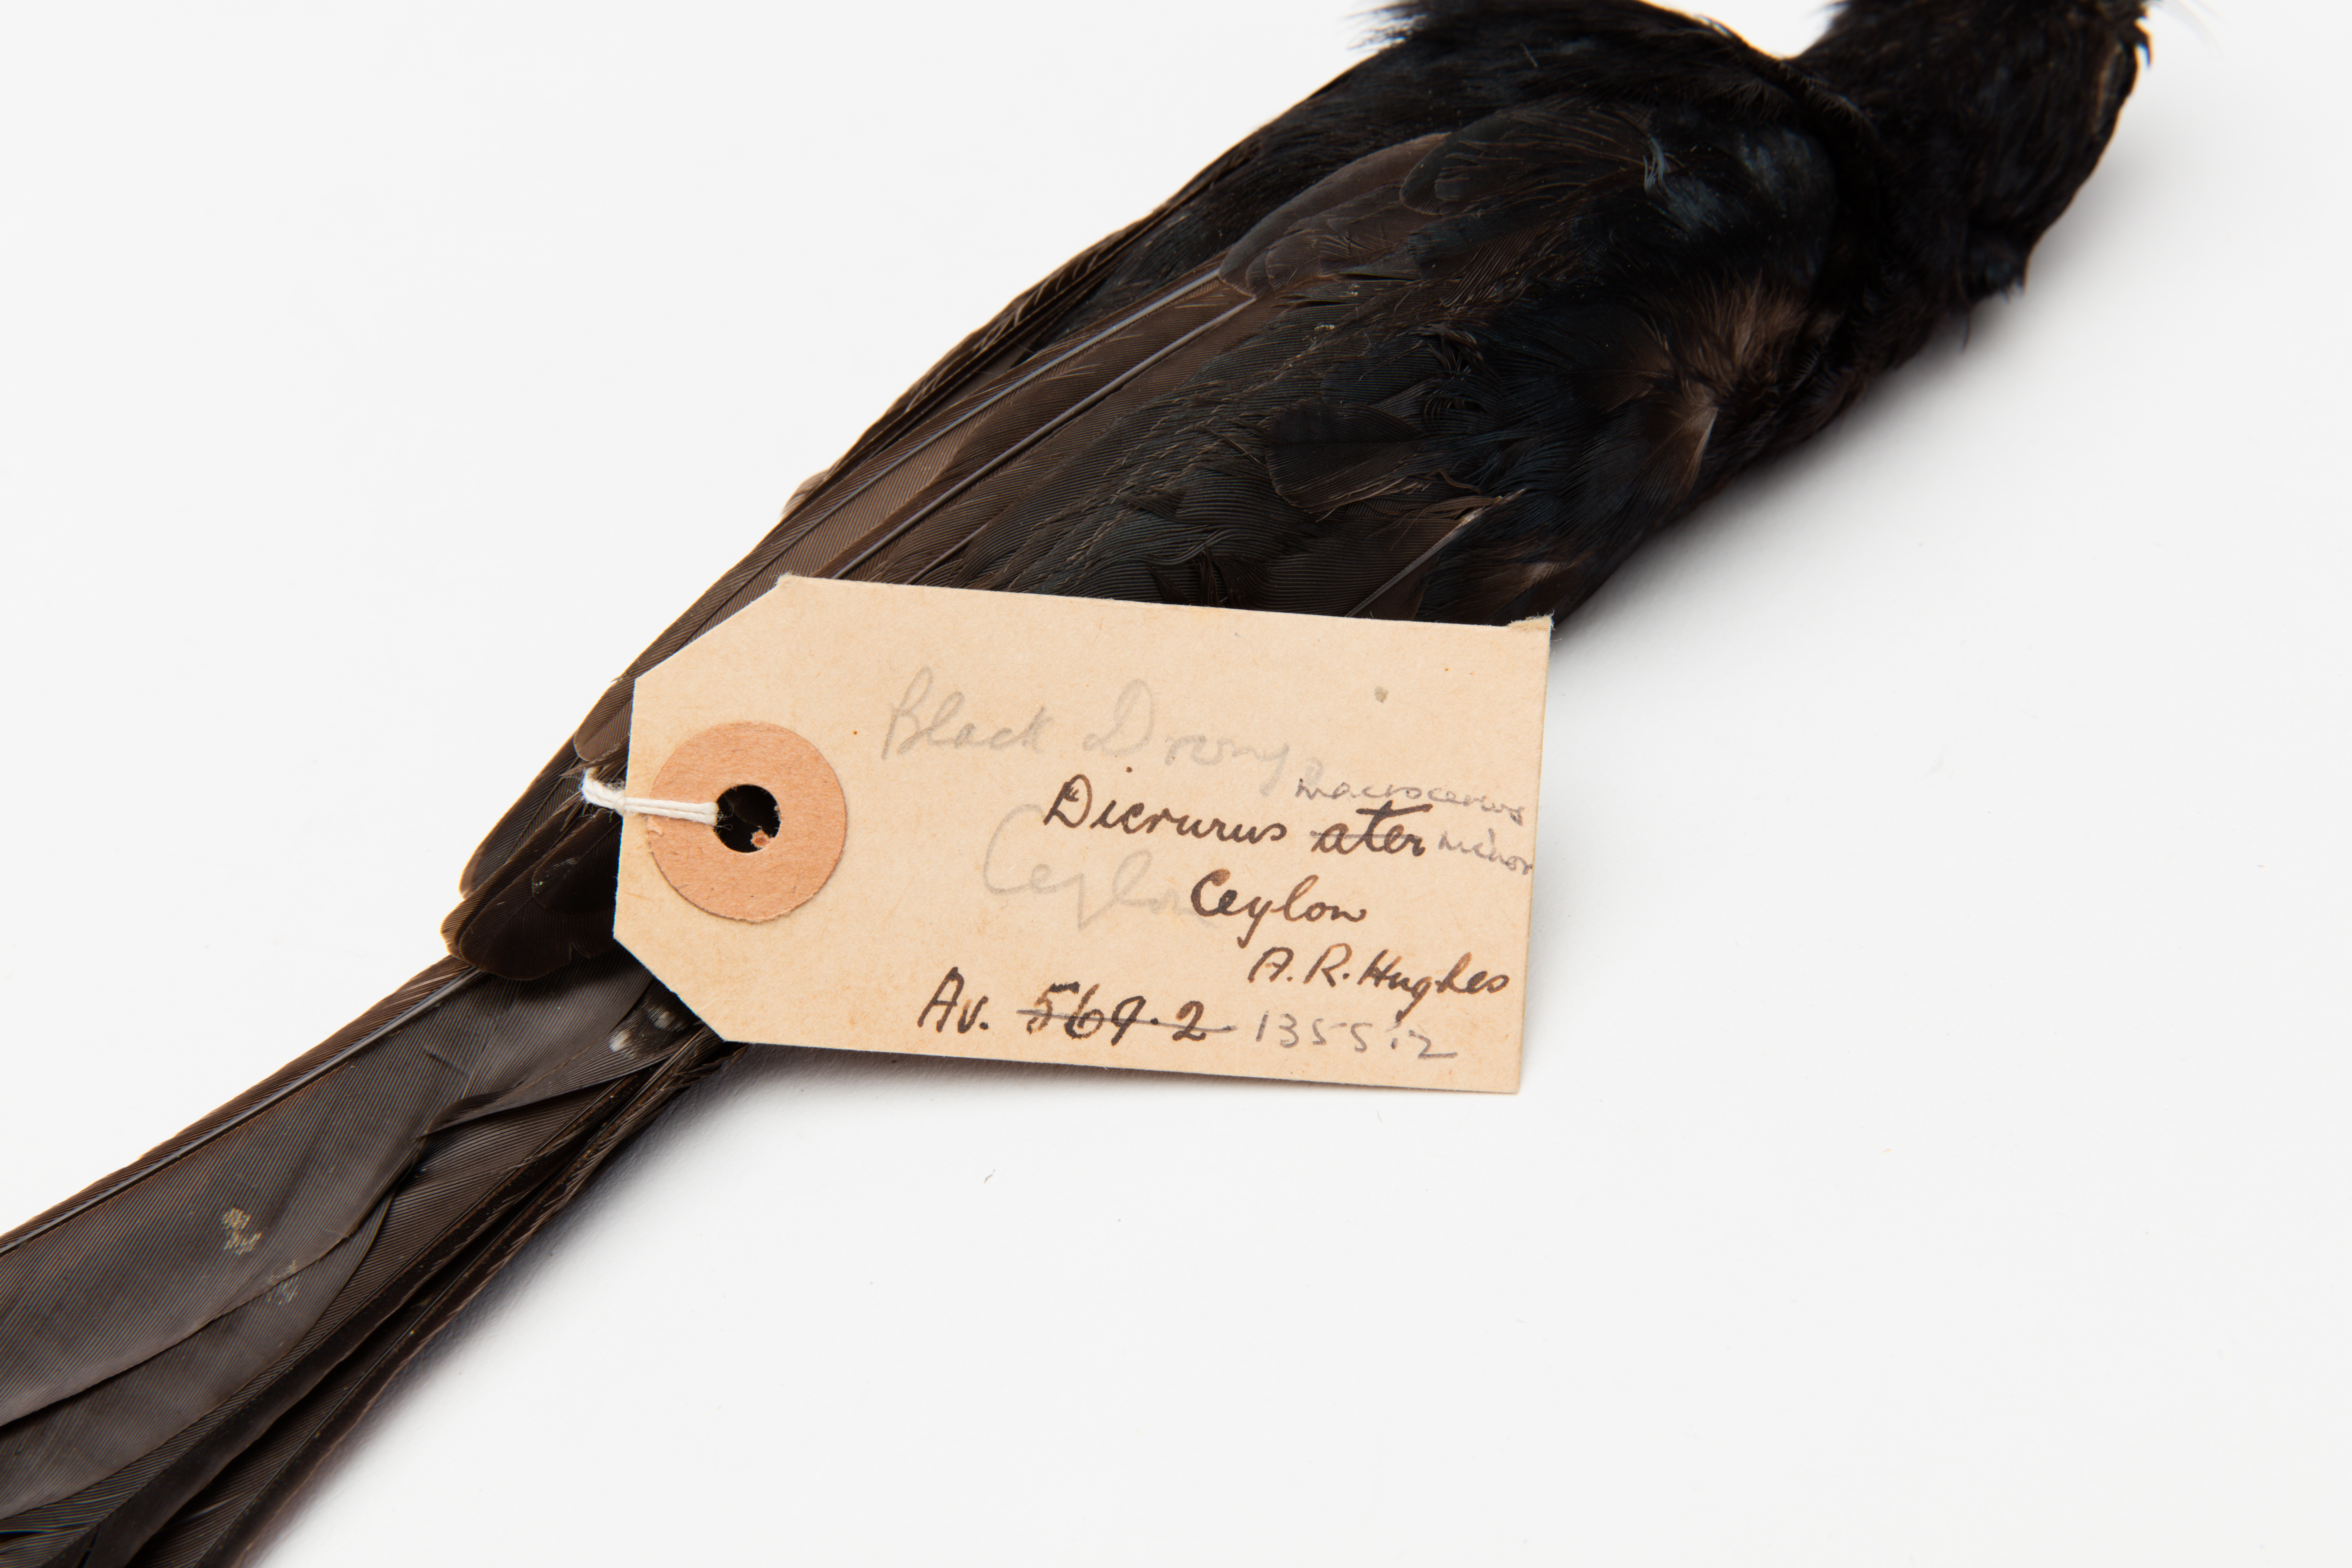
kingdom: Animalia
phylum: Chordata
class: Aves
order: Passeriformes
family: Dicruridae
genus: Dicrurus
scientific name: Dicrurus macrocercus
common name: Black drongo
